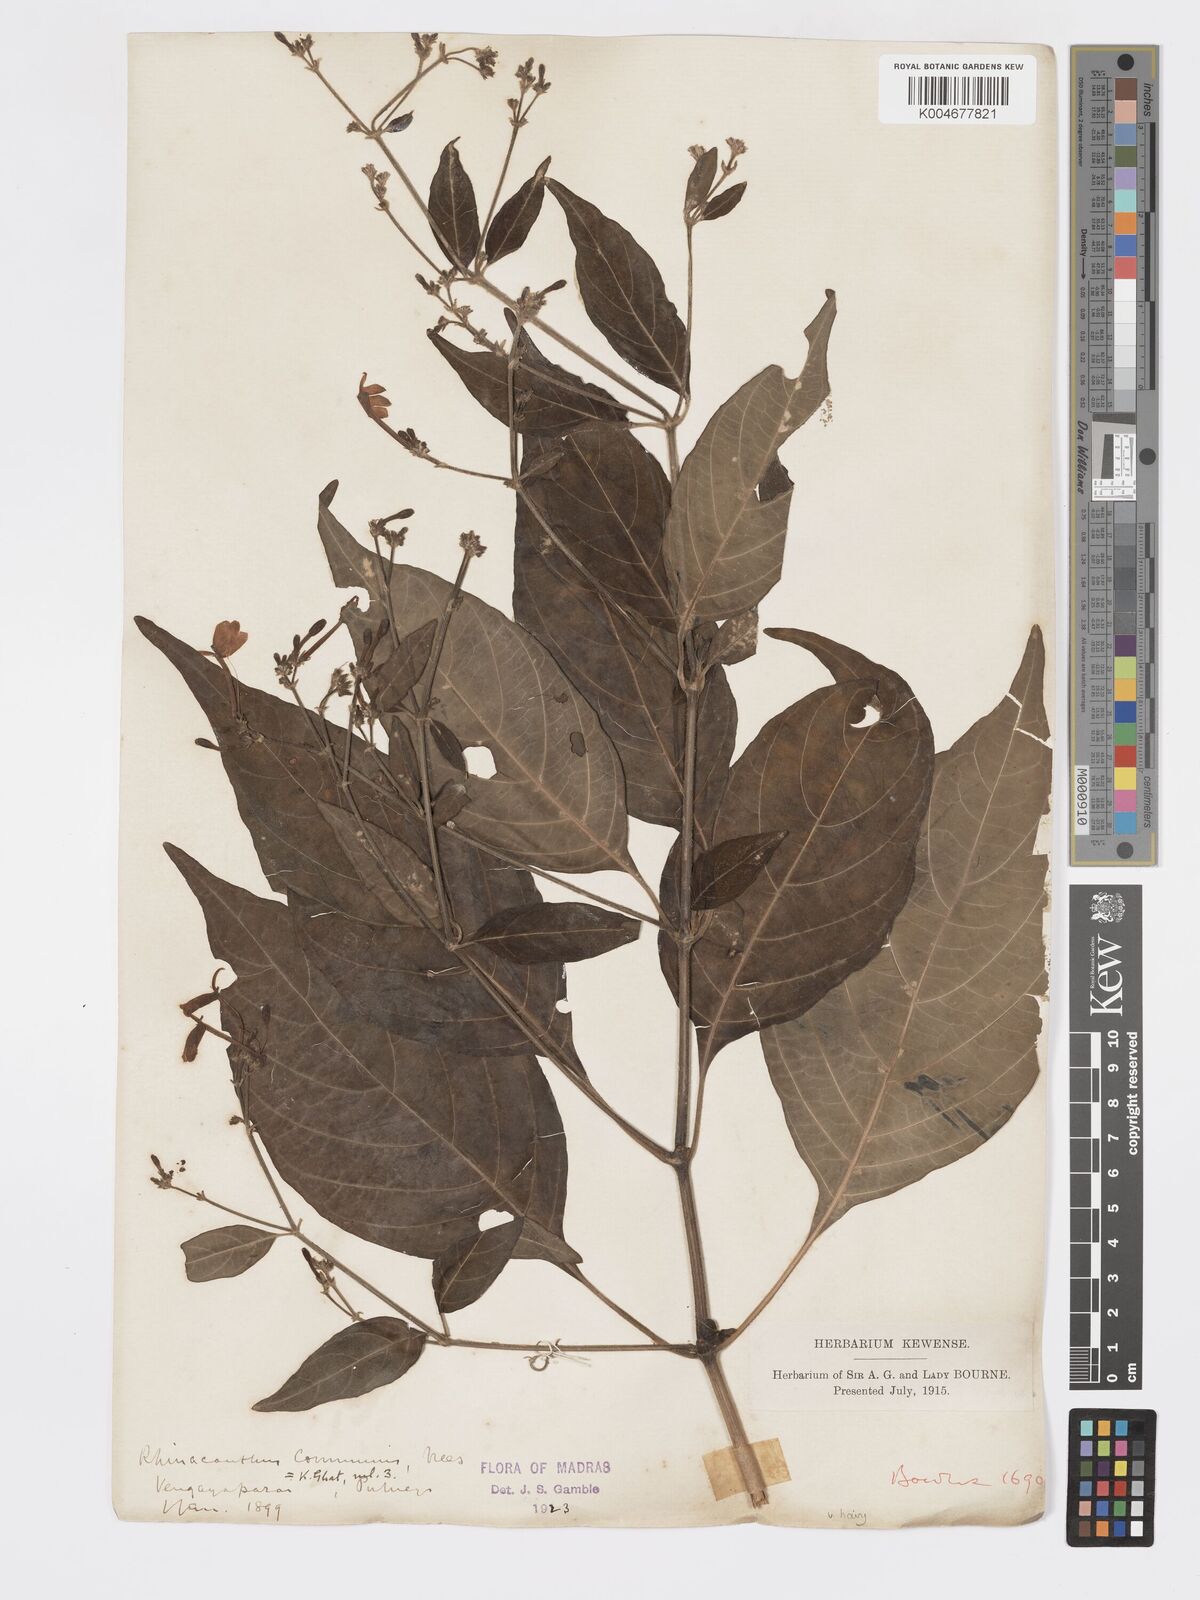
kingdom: Plantae
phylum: Tracheophyta
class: Magnoliopsida
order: Lamiales
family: Acanthaceae
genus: Rhinacanthus
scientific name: Rhinacanthus nasutus
